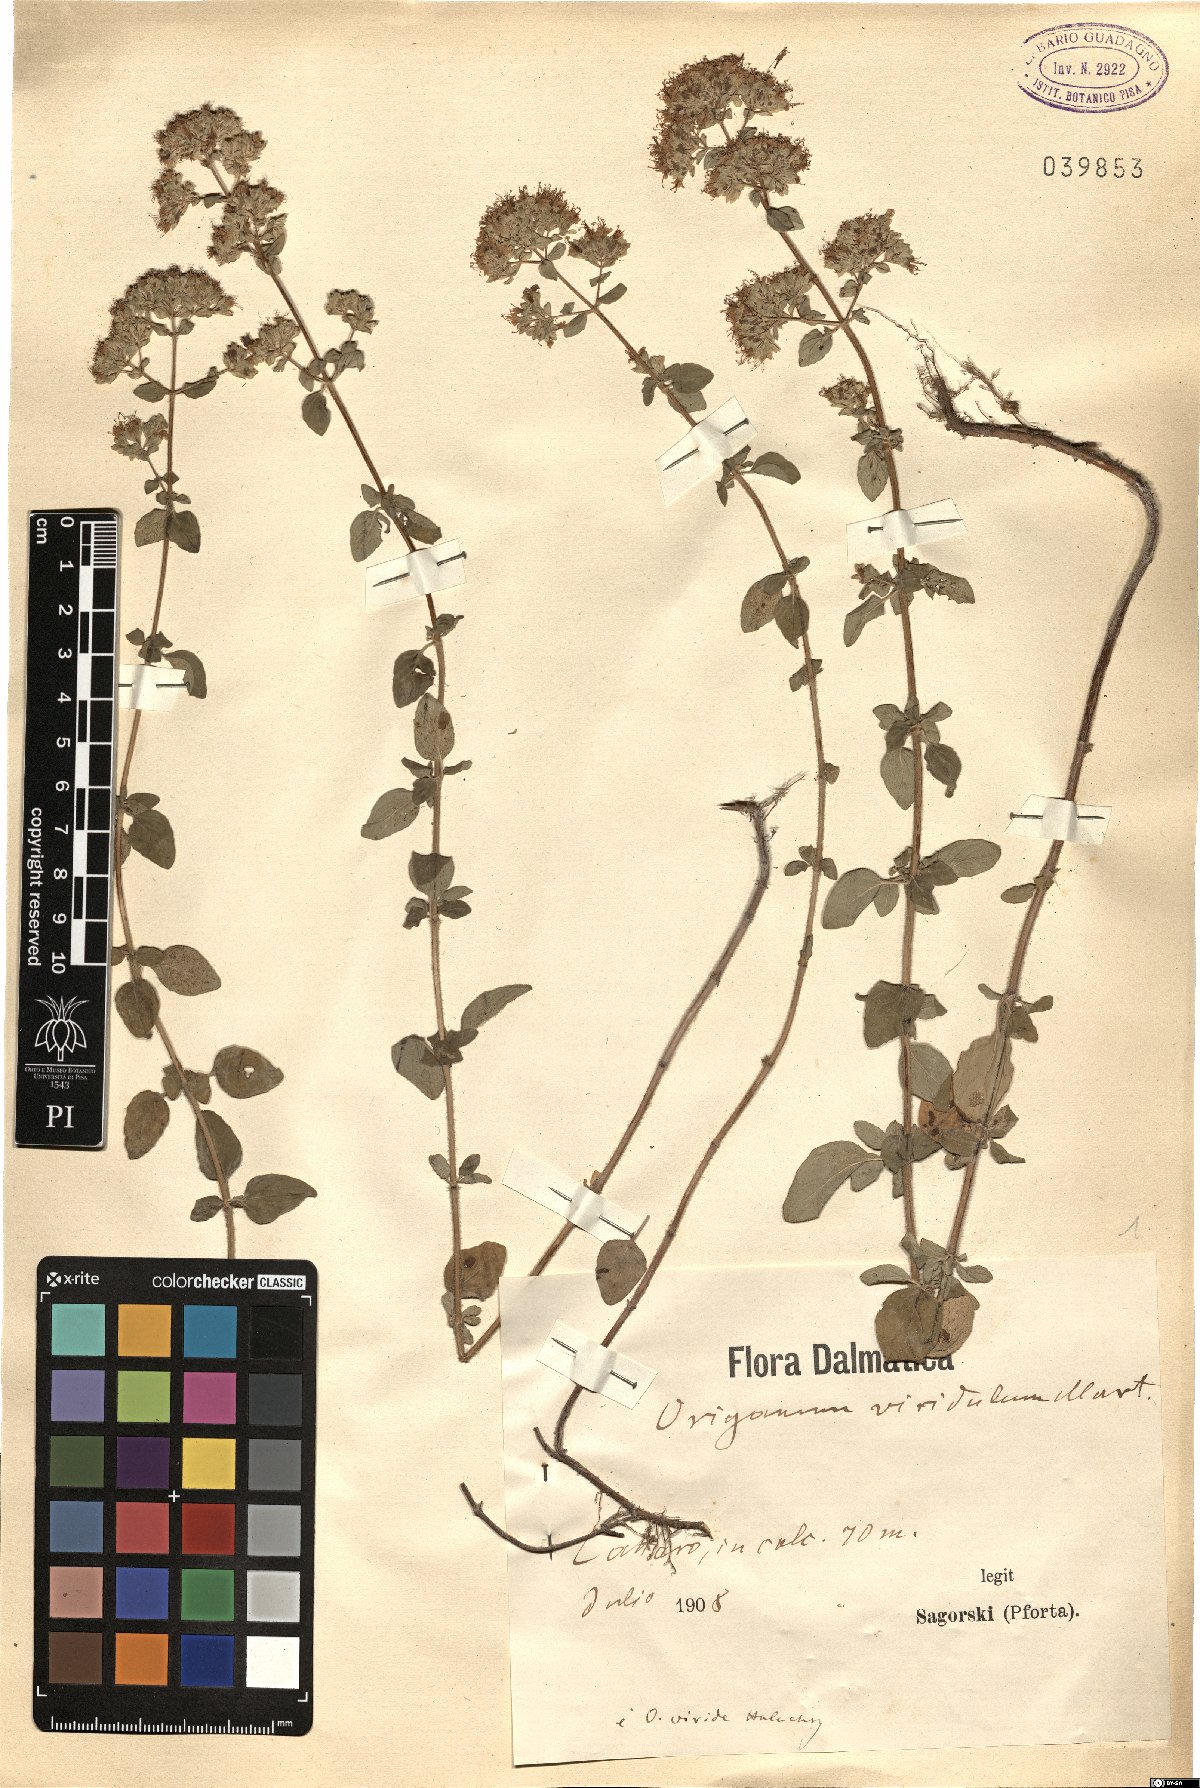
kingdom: Plantae
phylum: Tracheophyta
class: Magnoliopsida
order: Lamiales
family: Lamiaceae
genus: Origanum
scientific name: Origanum vulgare
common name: Wild marjoram
